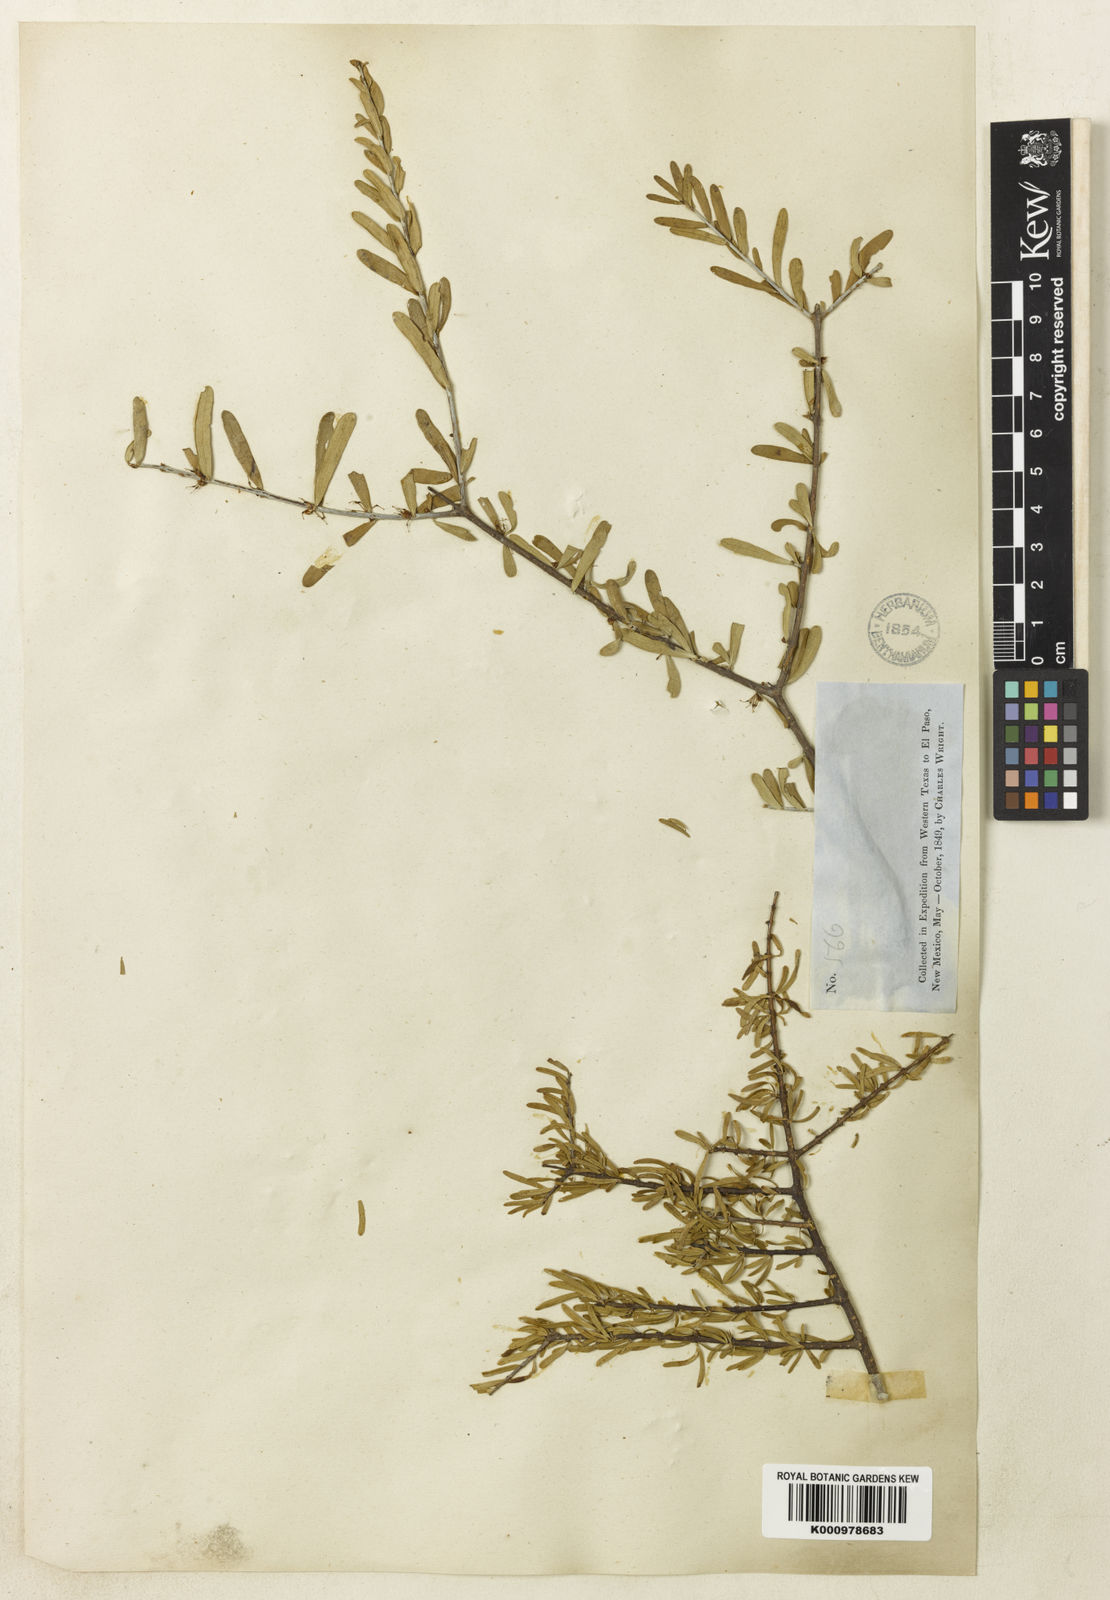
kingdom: Plantae
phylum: Tracheophyta
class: Magnoliopsida
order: Lamiales
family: Oleaceae
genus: Forestiera
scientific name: Forestiera angustifolia
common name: Elbowbush
